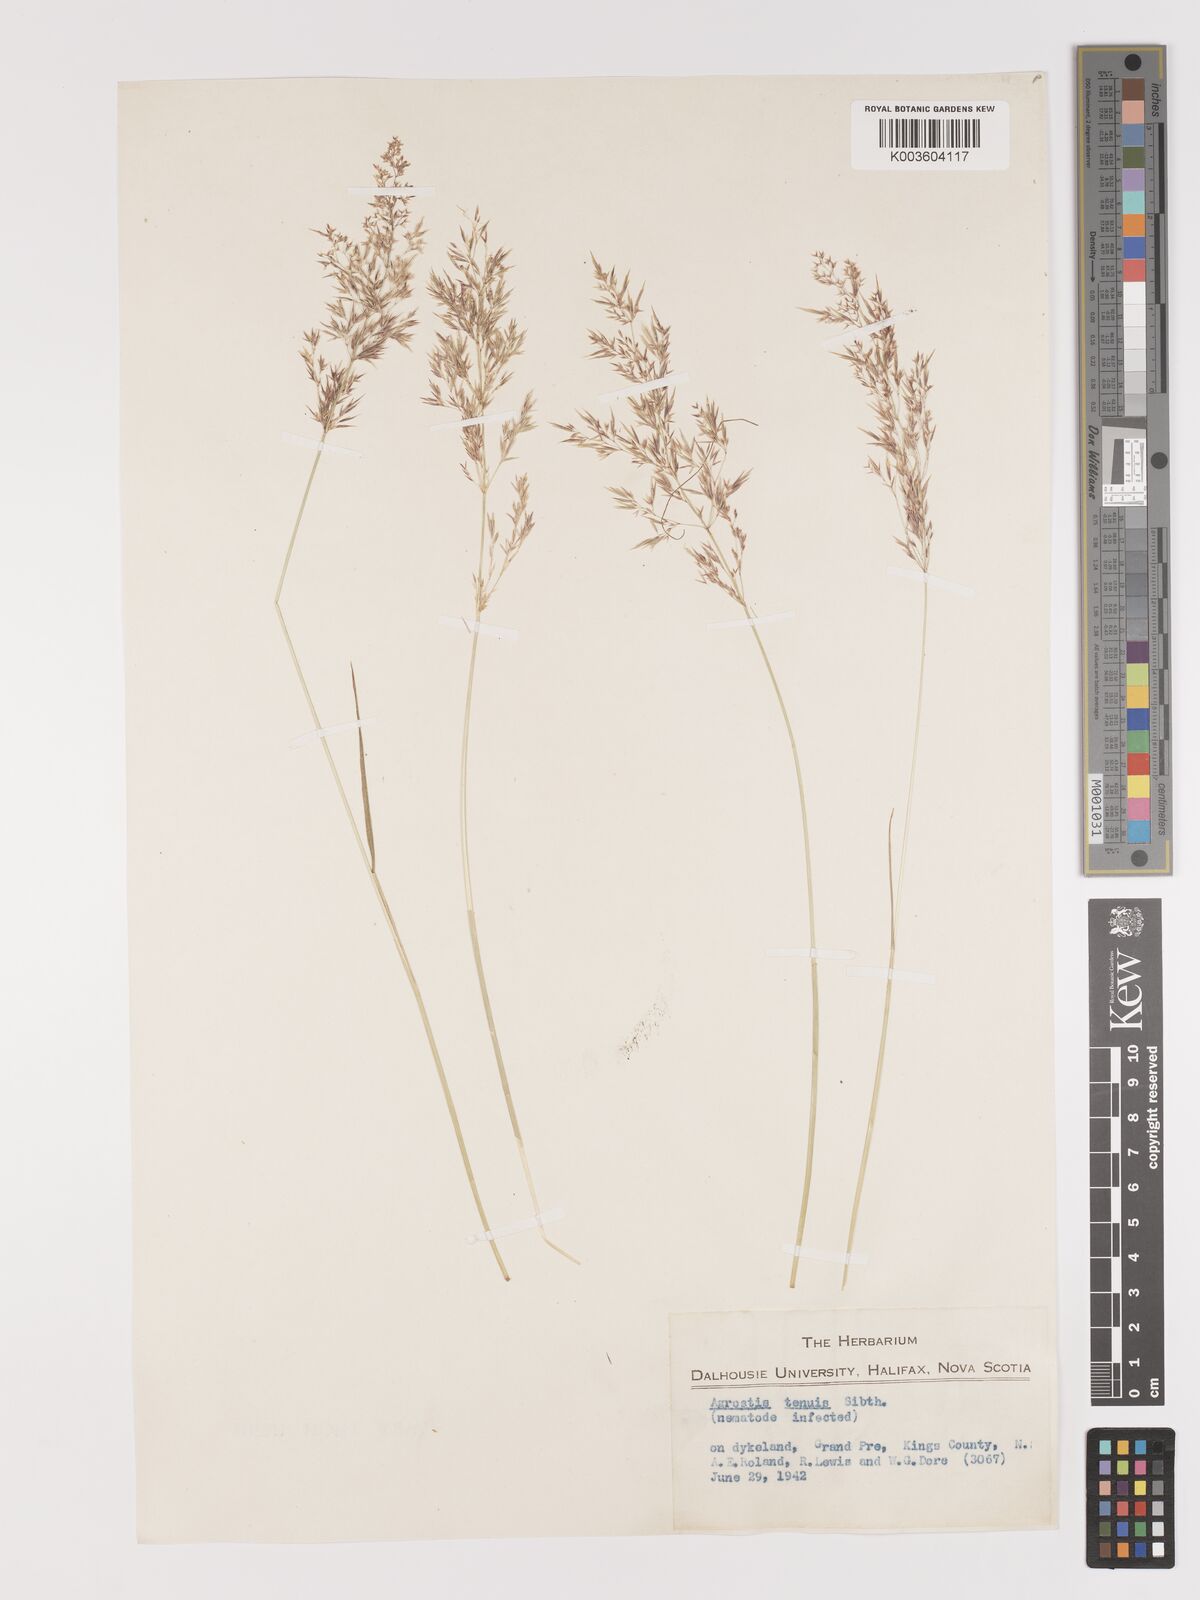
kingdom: Plantae
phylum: Tracheophyta
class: Liliopsida
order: Poales
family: Poaceae
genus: Agrostis
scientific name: Agrostis capillaris
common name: Colonial bentgrass
